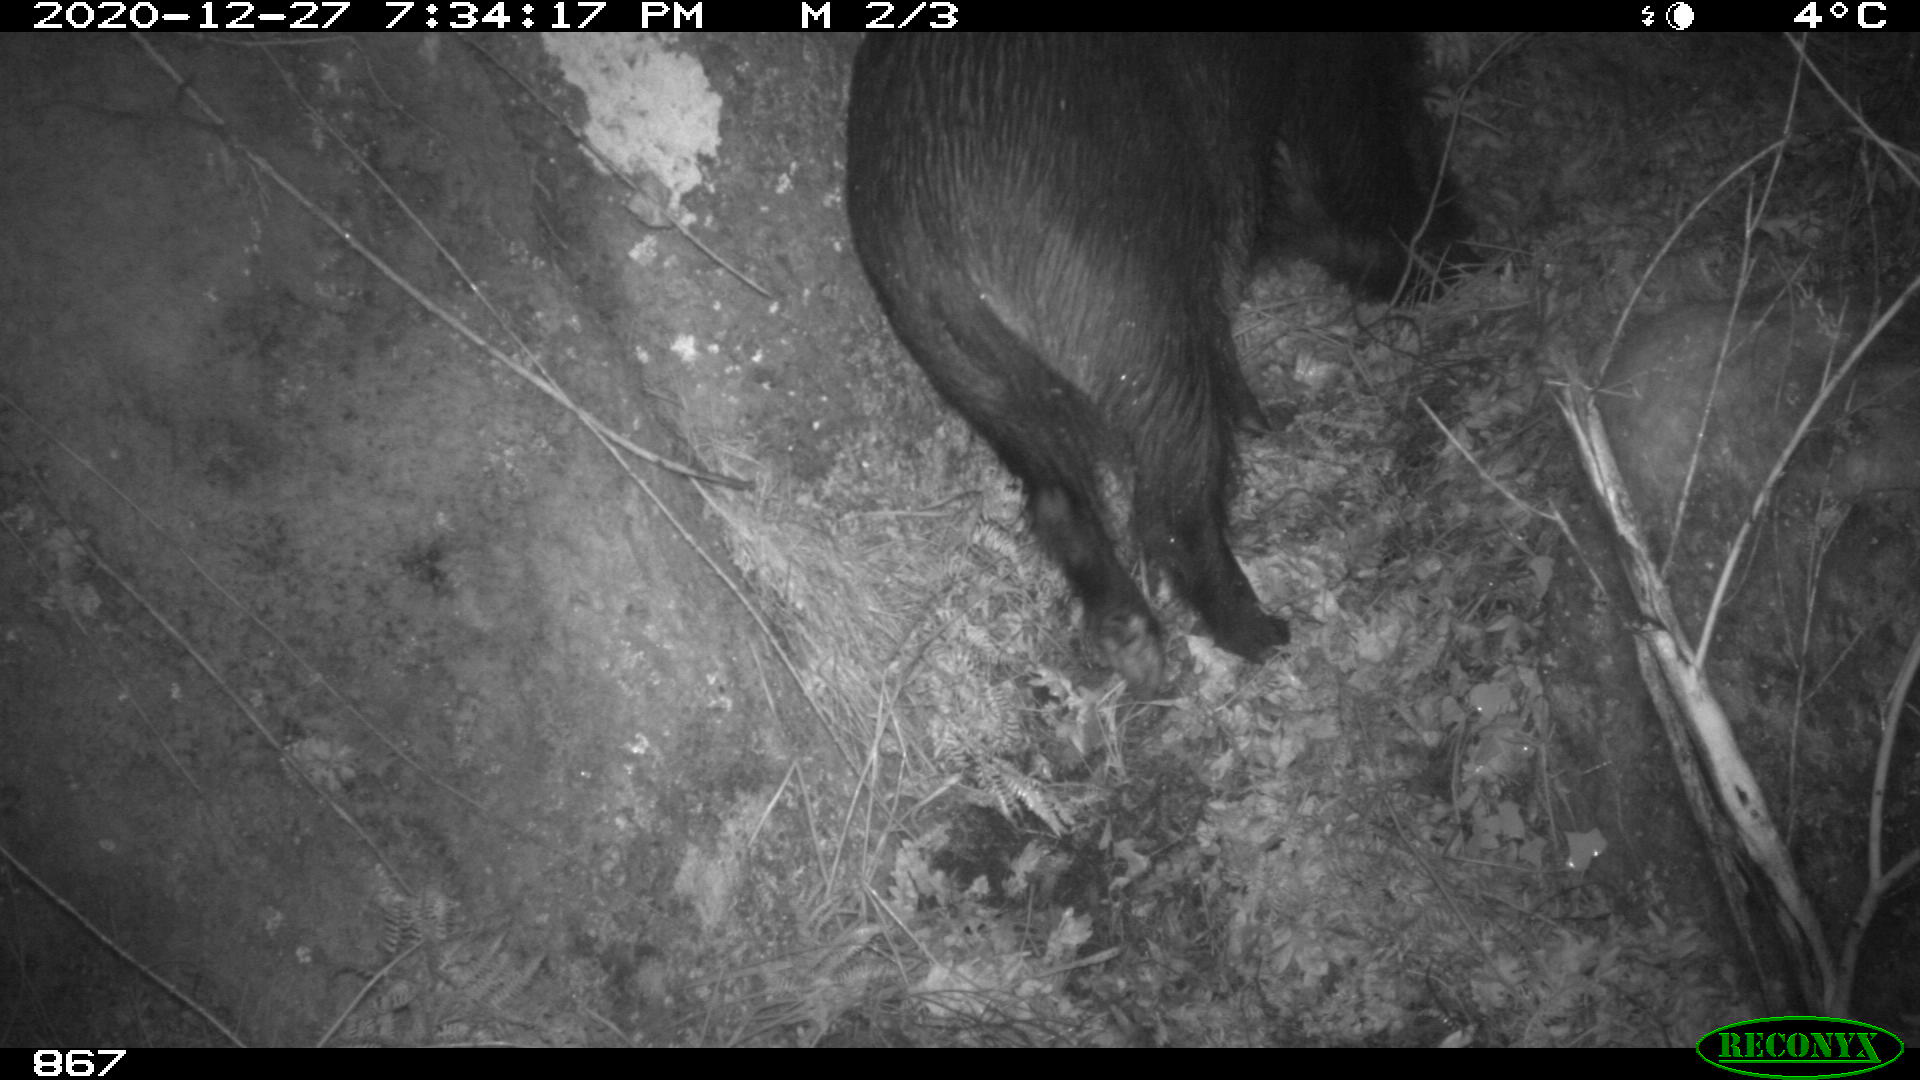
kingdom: Animalia
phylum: Chordata
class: Mammalia
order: Artiodactyla
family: Suidae
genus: Sus
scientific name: Sus scrofa
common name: Wild boar
